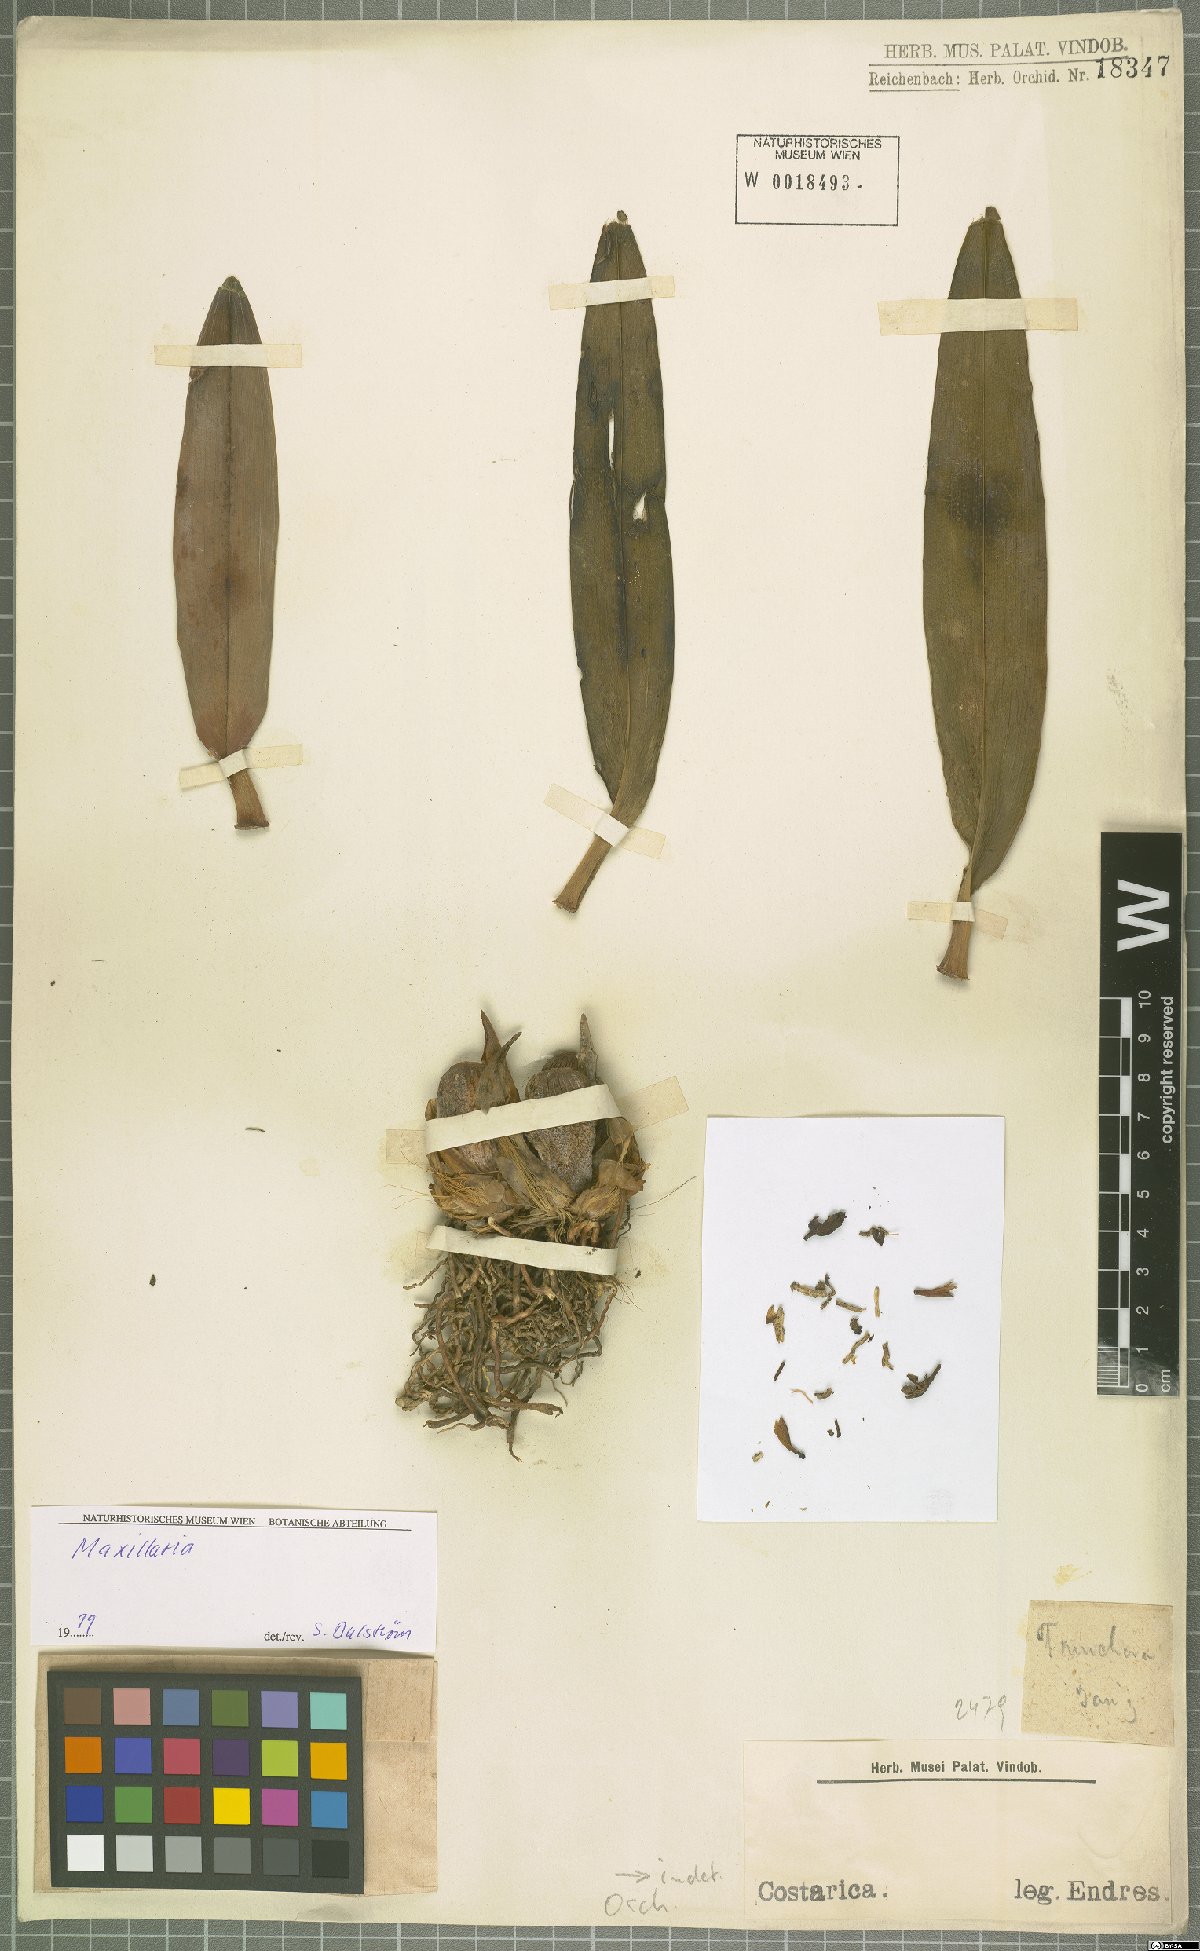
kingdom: Plantae
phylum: Tracheophyta
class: Liliopsida
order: Asparagales
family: Orchidaceae
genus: Maxillaria
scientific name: Maxillaria
